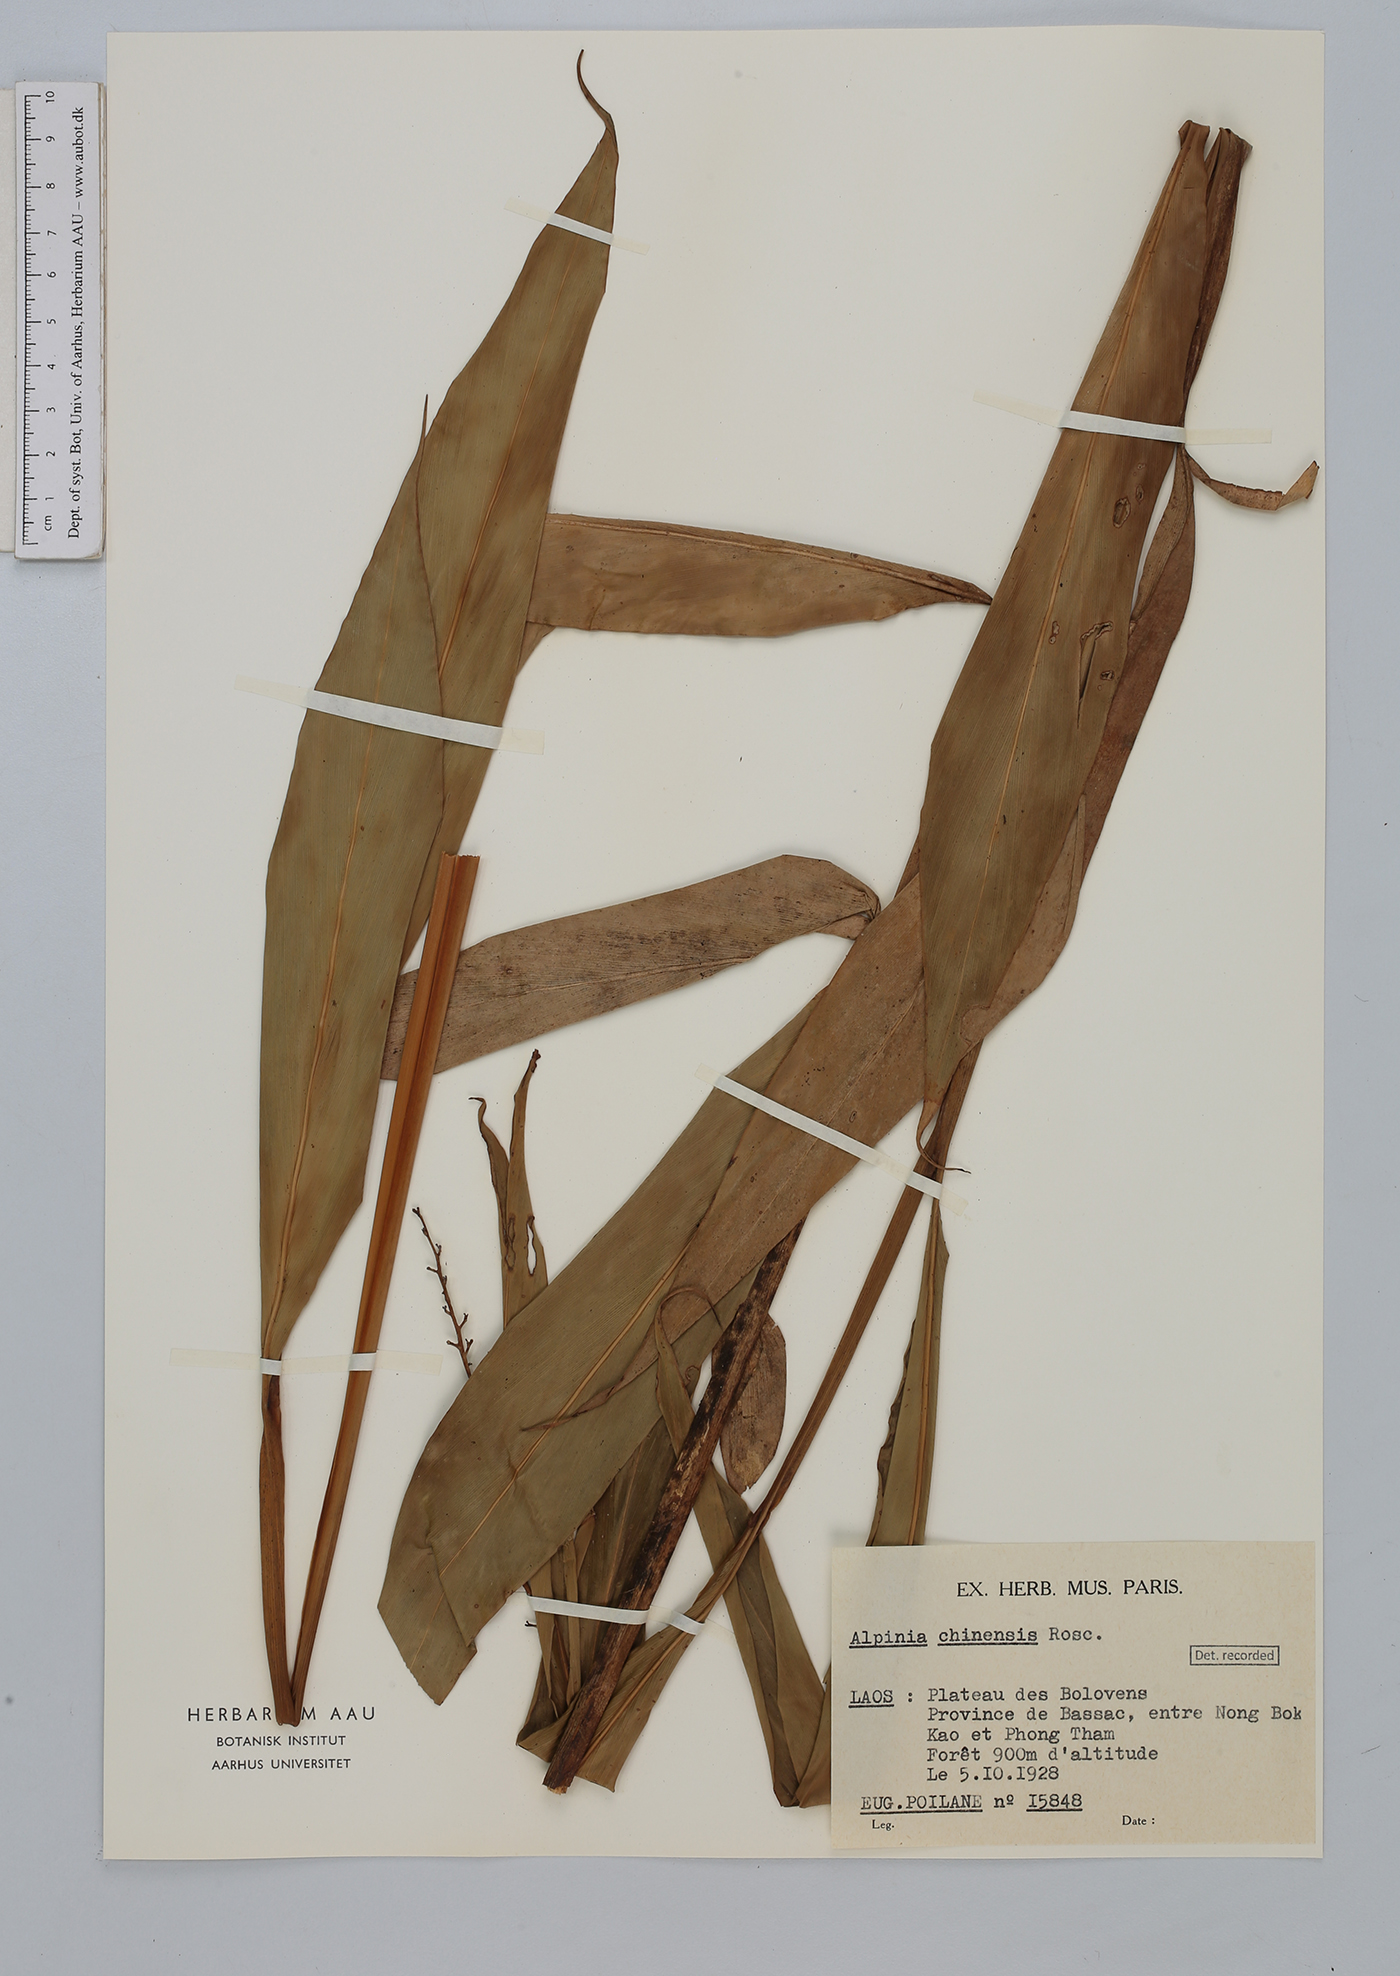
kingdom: Plantae
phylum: Tracheophyta
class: Liliopsida
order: Zingiberales
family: Zingiberaceae
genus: Alpinia
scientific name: Alpinia chinensis
